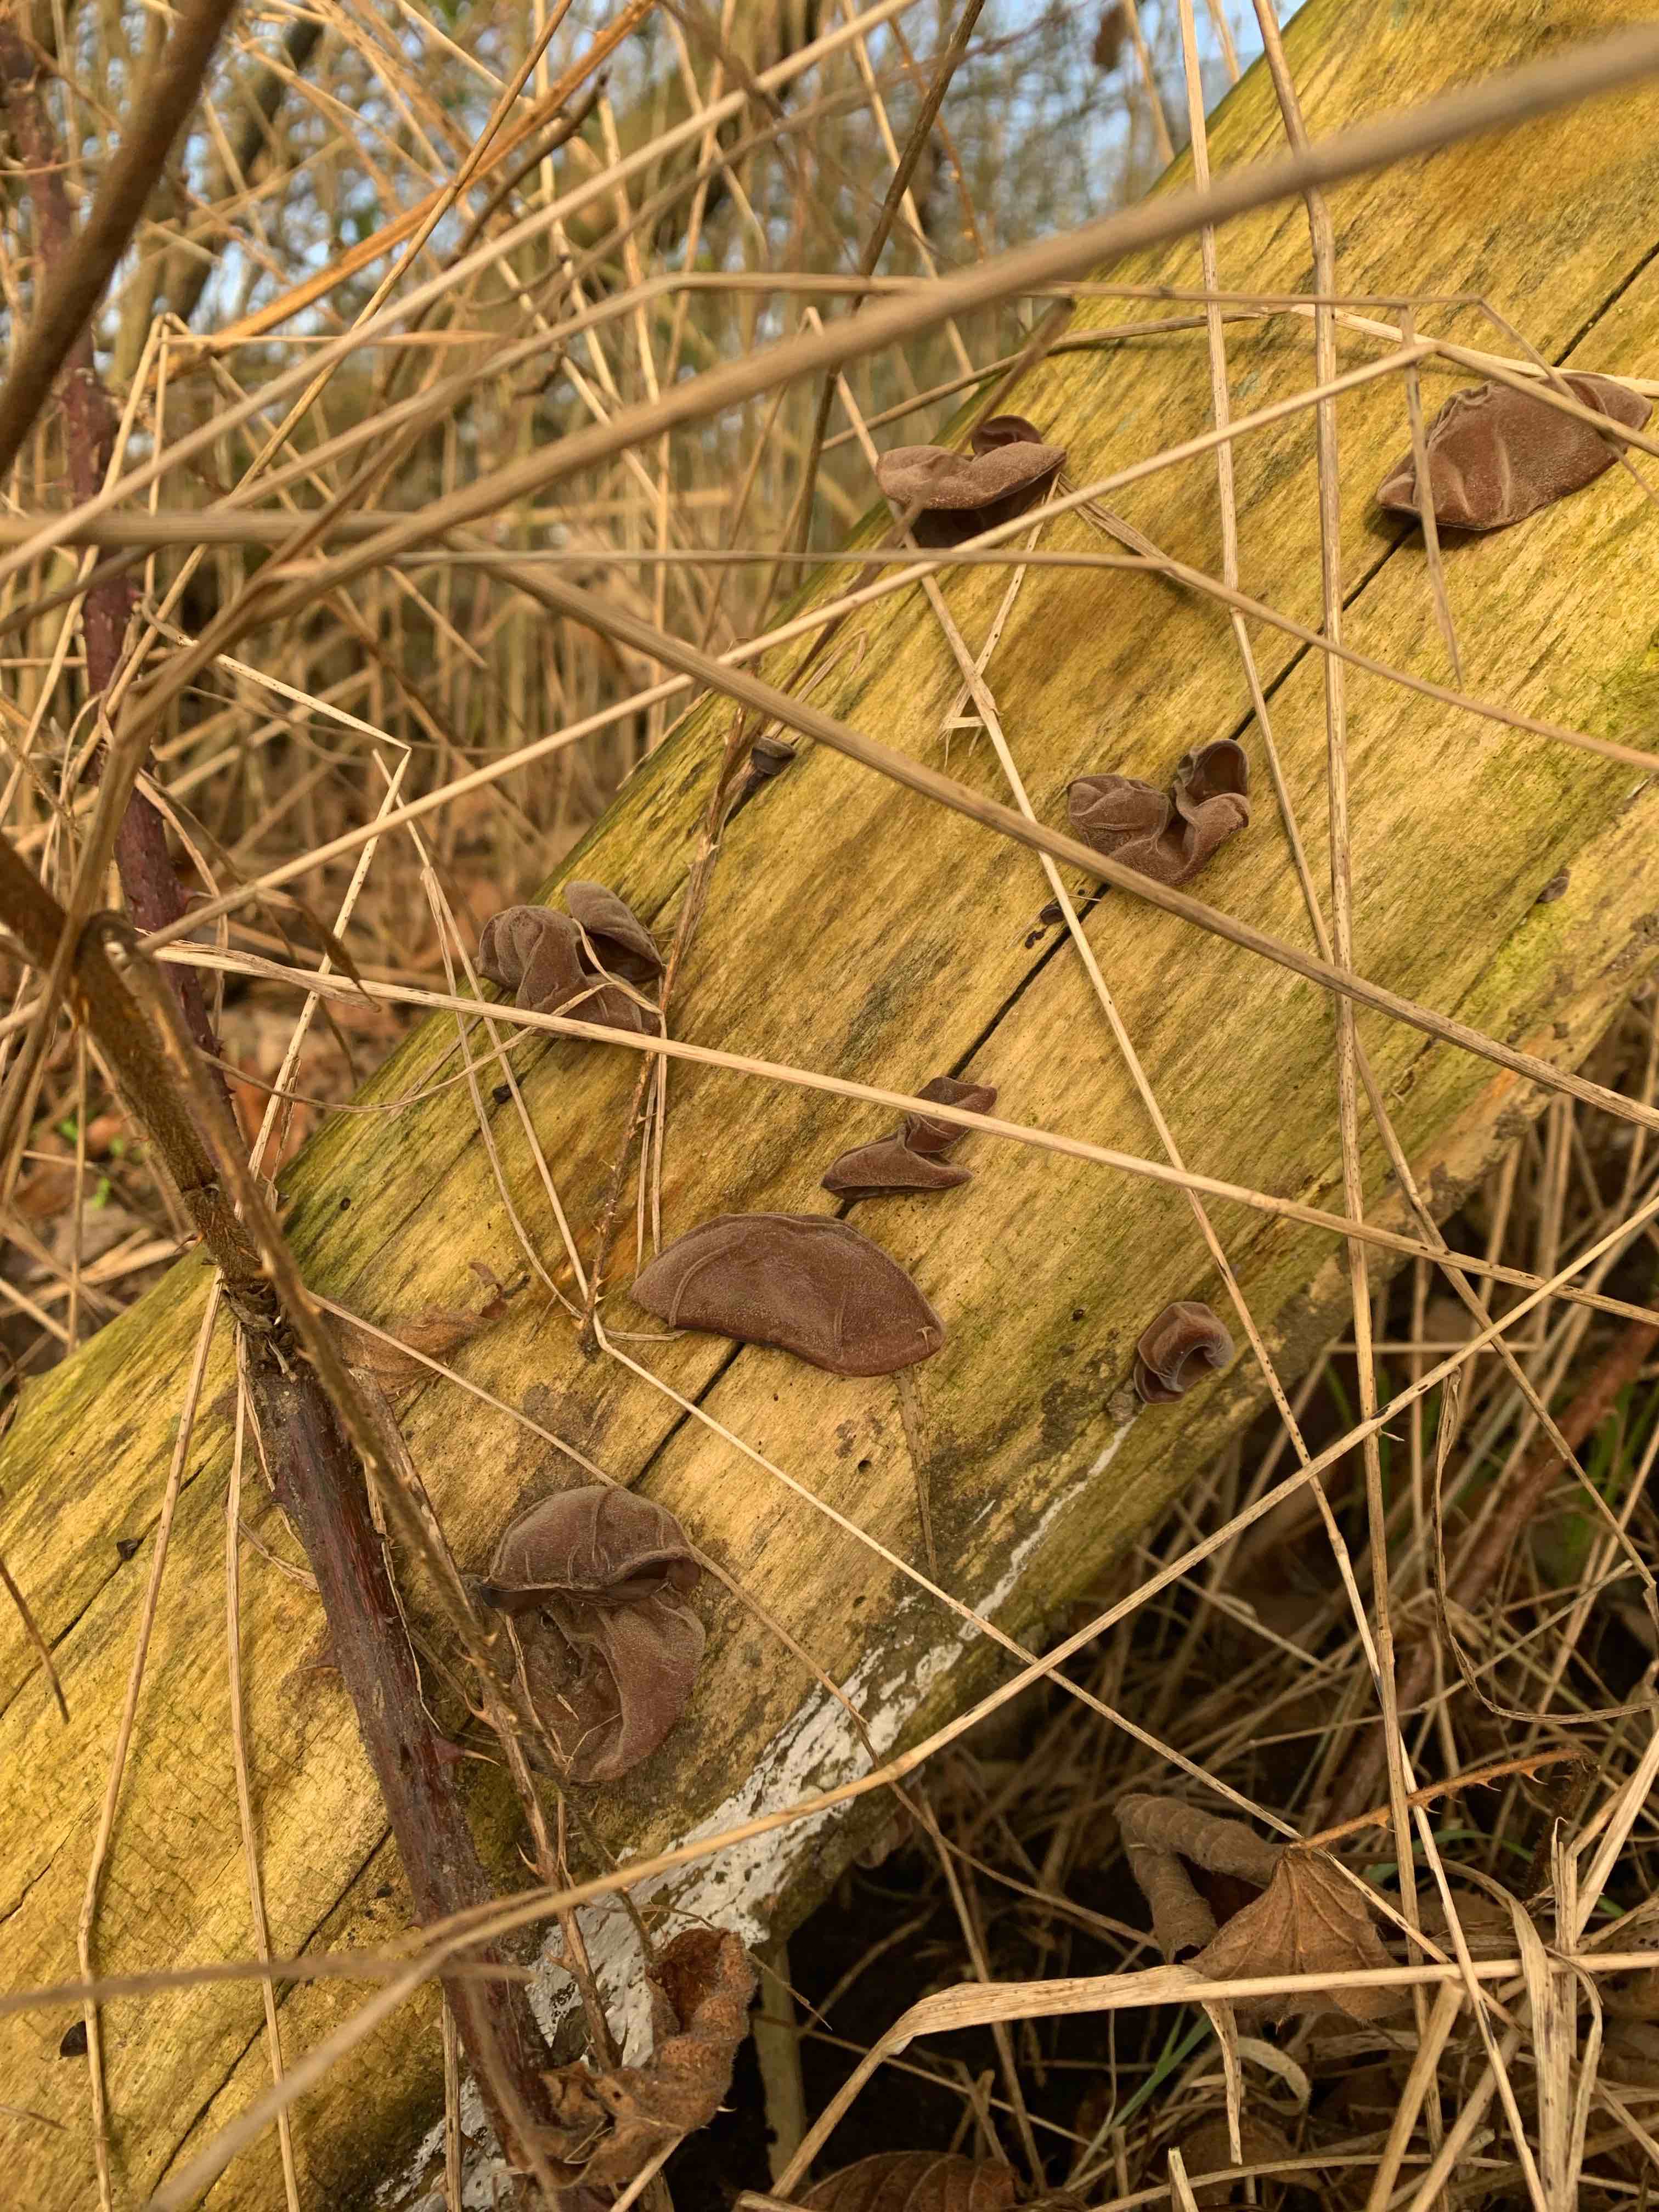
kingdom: Fungi
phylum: Basidiomycota
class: Agaricomycetes
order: Auriculariales
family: Auriculariaceae
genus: Auricularia
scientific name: Auricularia auricula-judae
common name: almindelig judasøre
